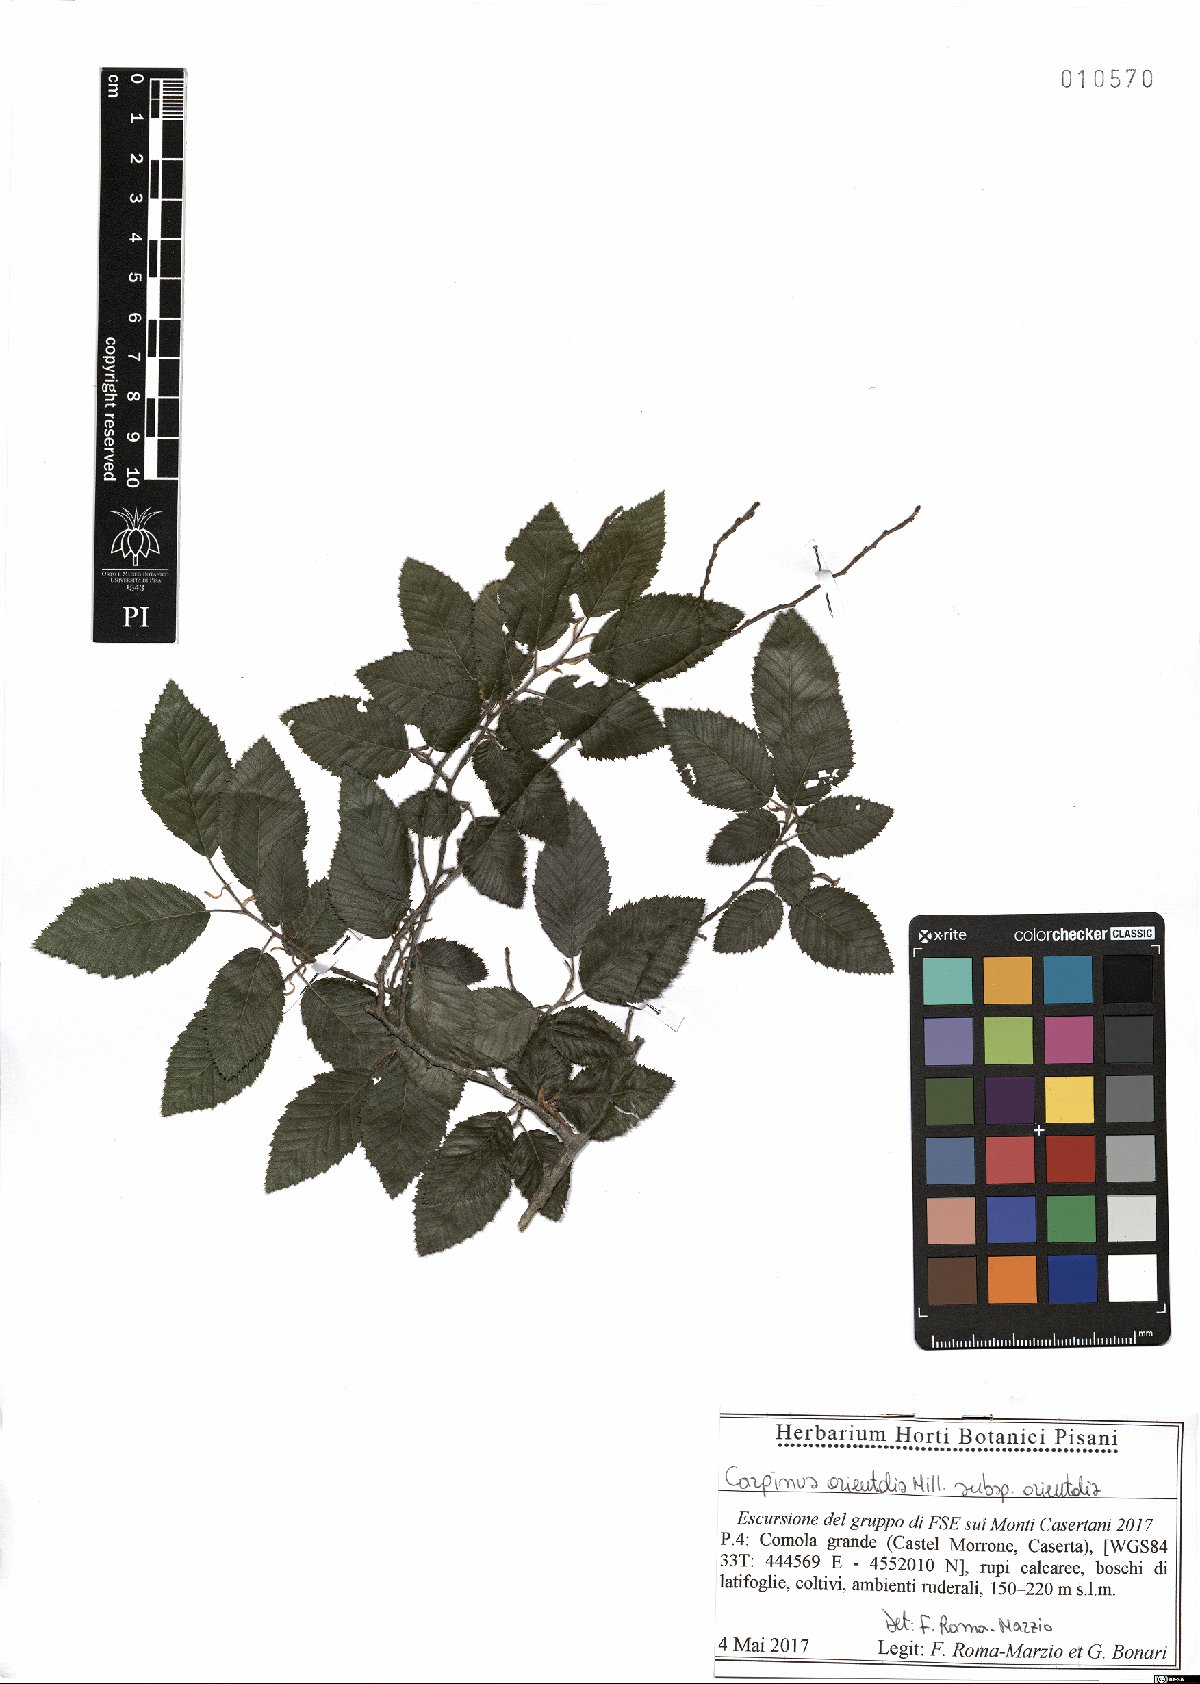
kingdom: Plantae
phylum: Tracheophyta
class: Magnoliopsida
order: Fagales
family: Betulaceae
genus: Carpinus
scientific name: Carpinus orientalis
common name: Eastern hornbeam
